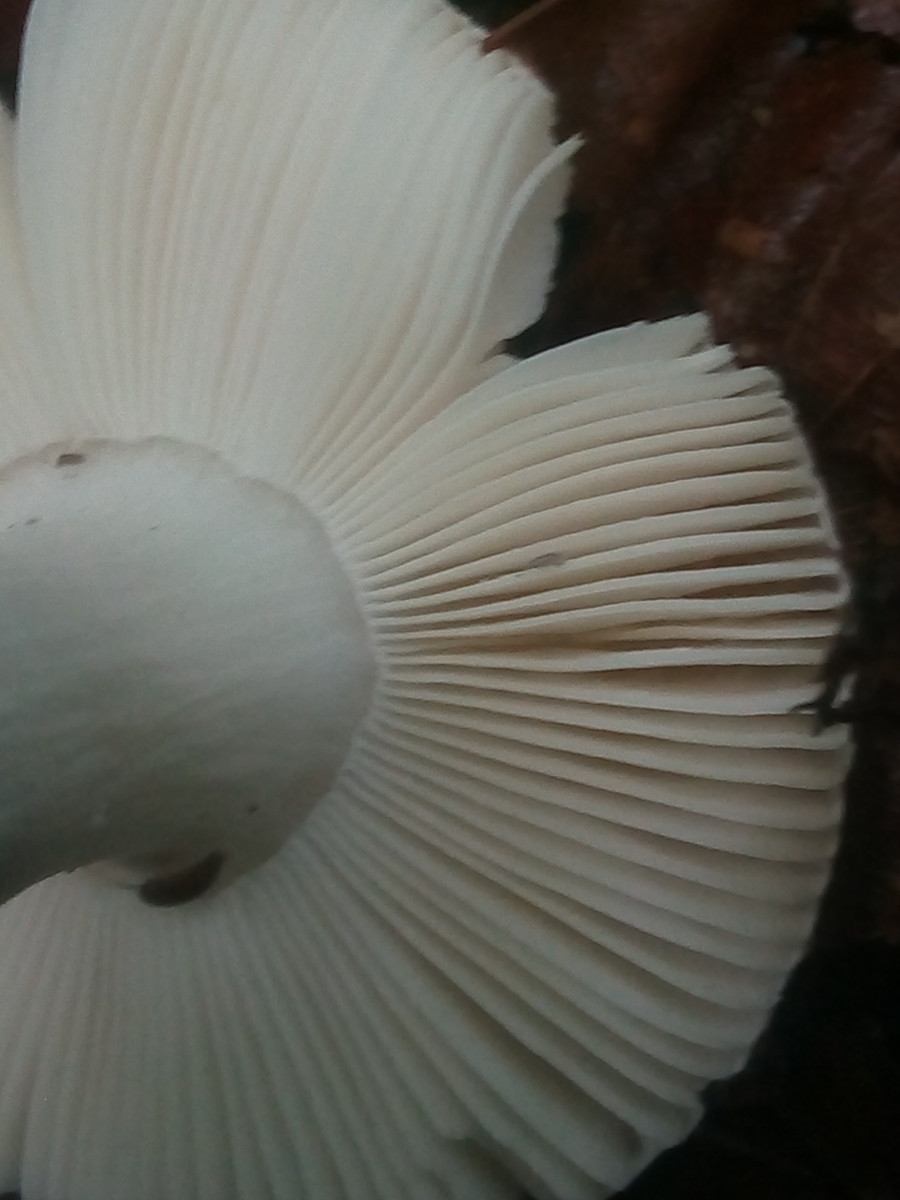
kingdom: Fungi
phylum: Basidiomycota
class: Agaricomycetes
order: Russulales
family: Russulaceae
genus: Russula
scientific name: Russula aurora
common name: rosa skørhat
